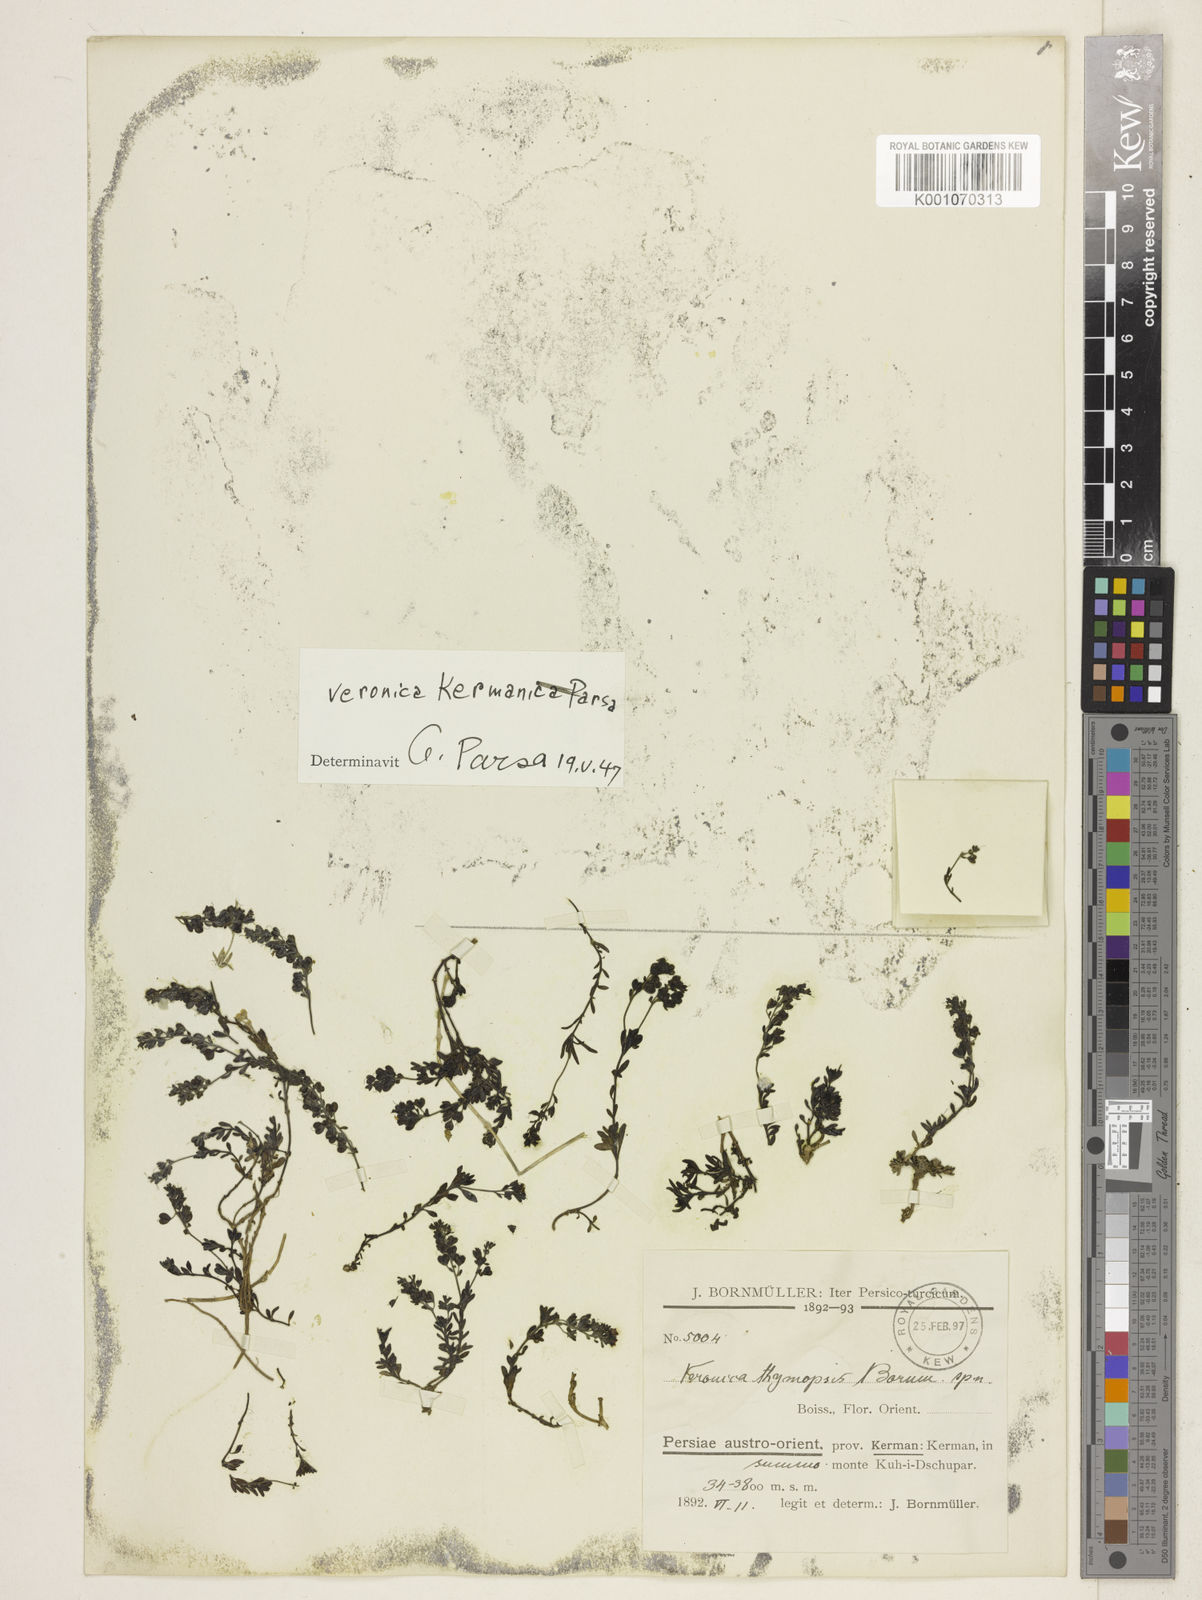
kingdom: Plantae
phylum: Tracheophyta
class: Magnoliopsida
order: Lamiales
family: Plantaginaceae
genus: Veronica
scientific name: Veronica
